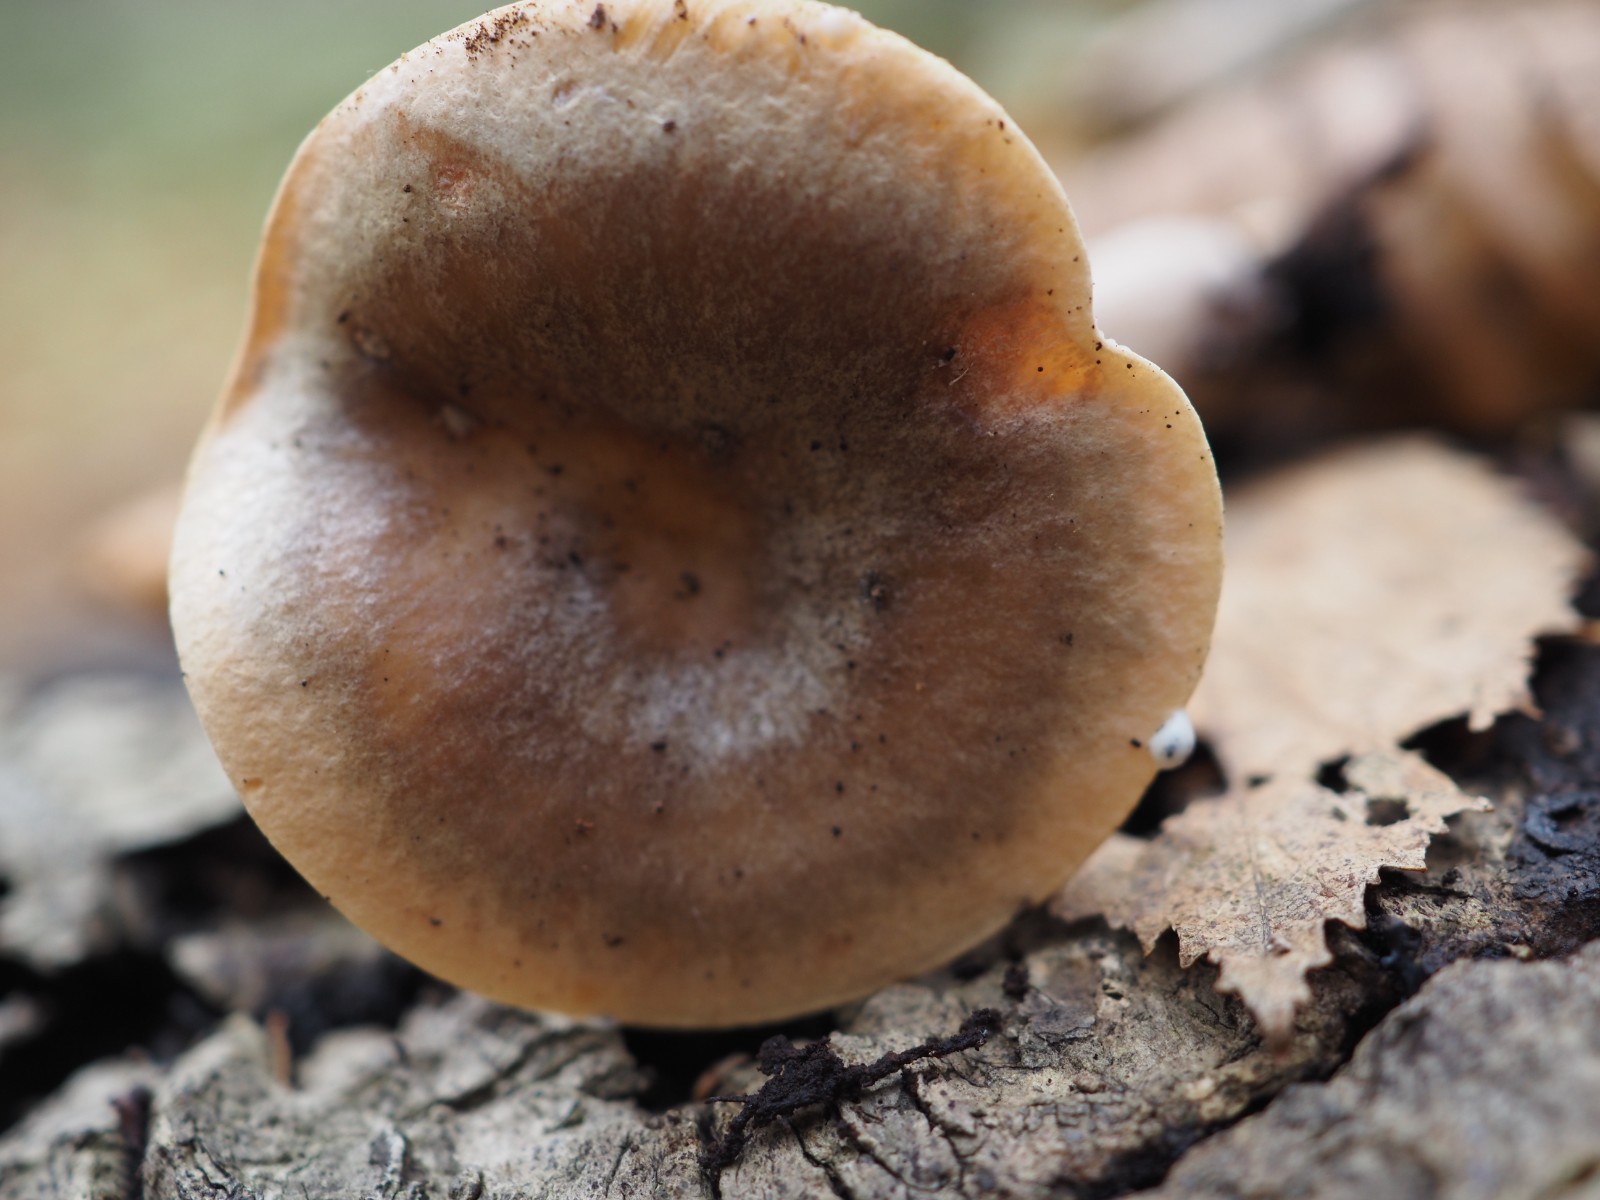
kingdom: Fungi
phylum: Basidiomycota
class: Agaricomycetes
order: Russulales
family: Russulaceae
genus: Lactarius
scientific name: Lactarius pyrogalus
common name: hassel-mælkehat
